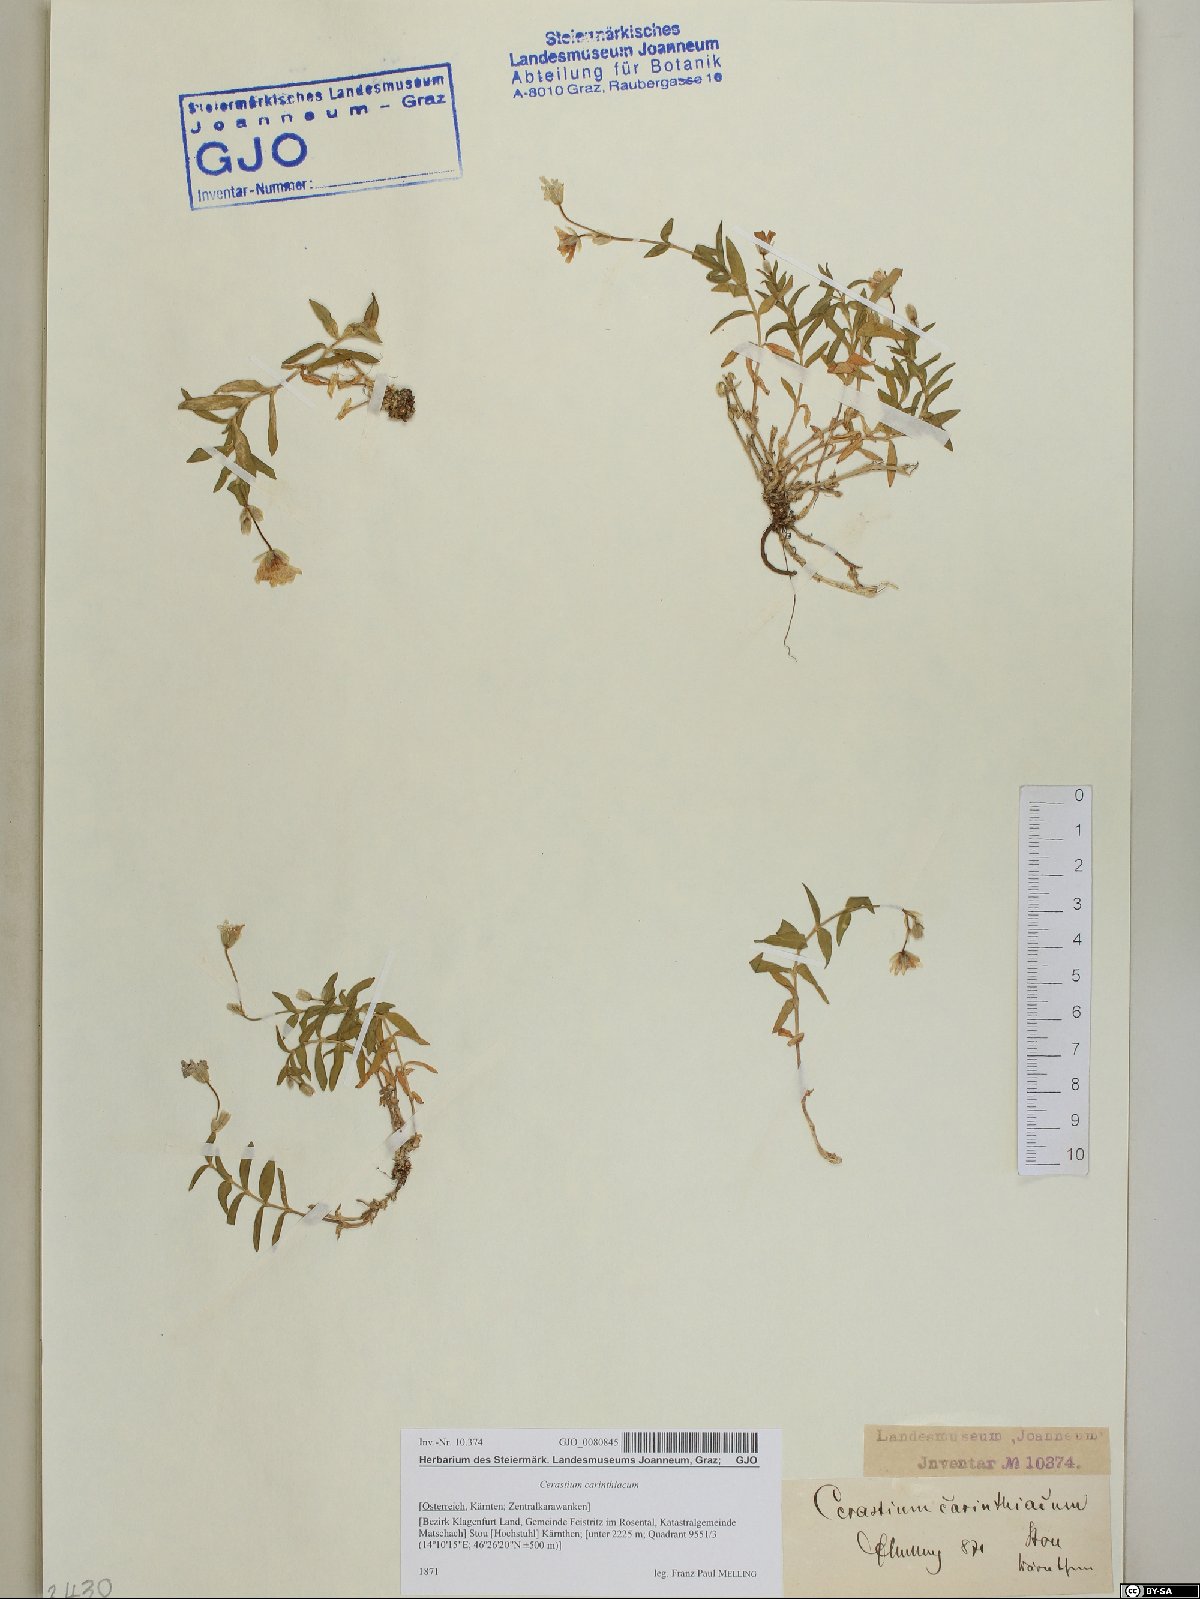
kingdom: Plantae
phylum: Tracheophyta
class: Magnoliopsida
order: Caryophyllales
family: Caryophyllaceae
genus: Cerastium
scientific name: Cerastium carinthiacum
